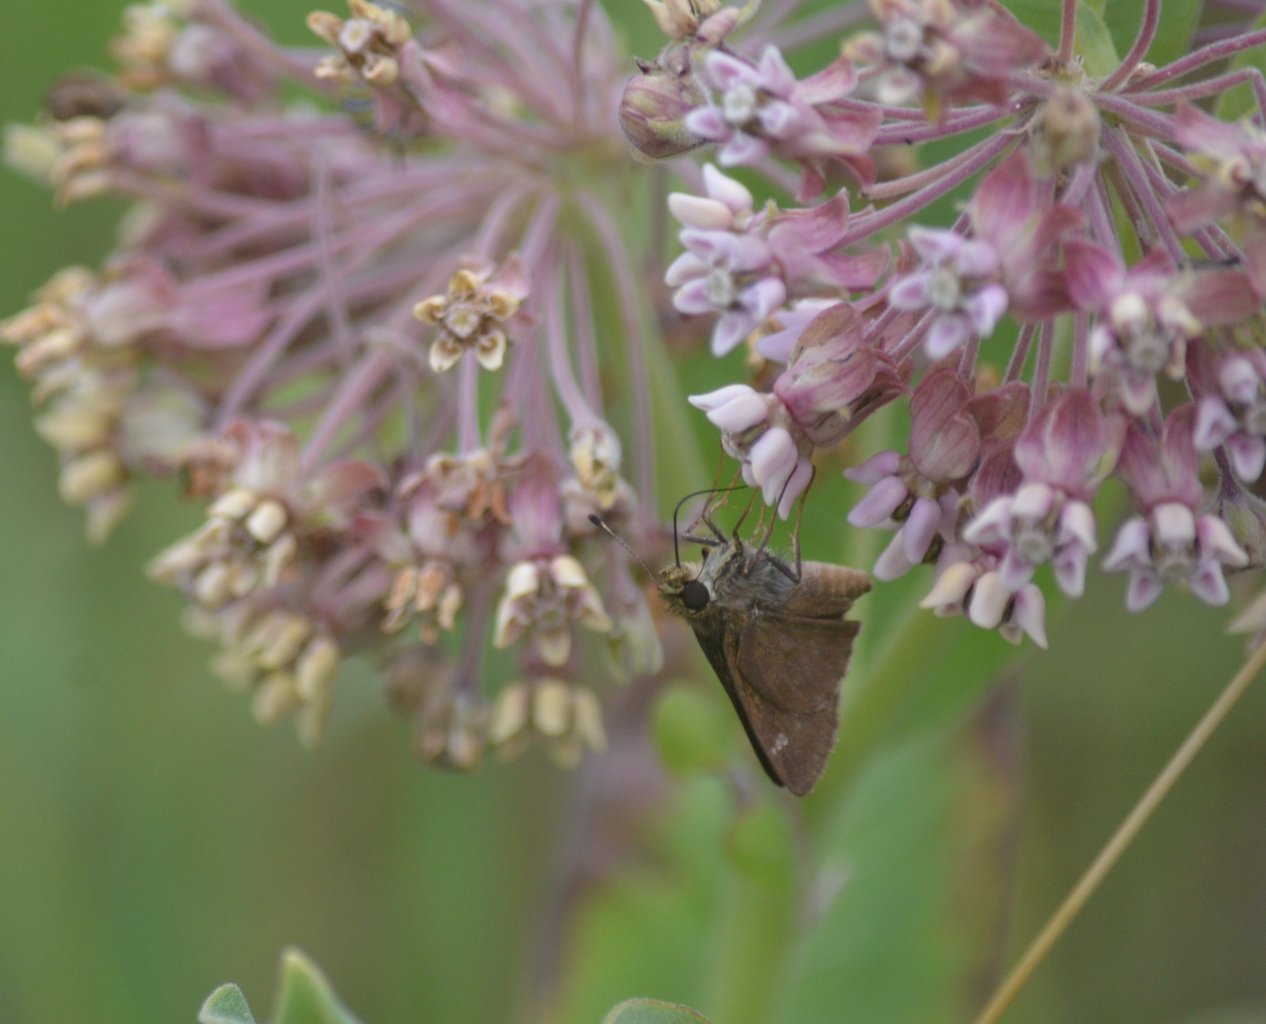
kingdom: Animalia
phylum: Arthropoda
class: Insecta
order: Lepidoptera
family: Hesperiidae
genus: Euphyes
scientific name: Euphyes vestris
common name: Dun Skipper
